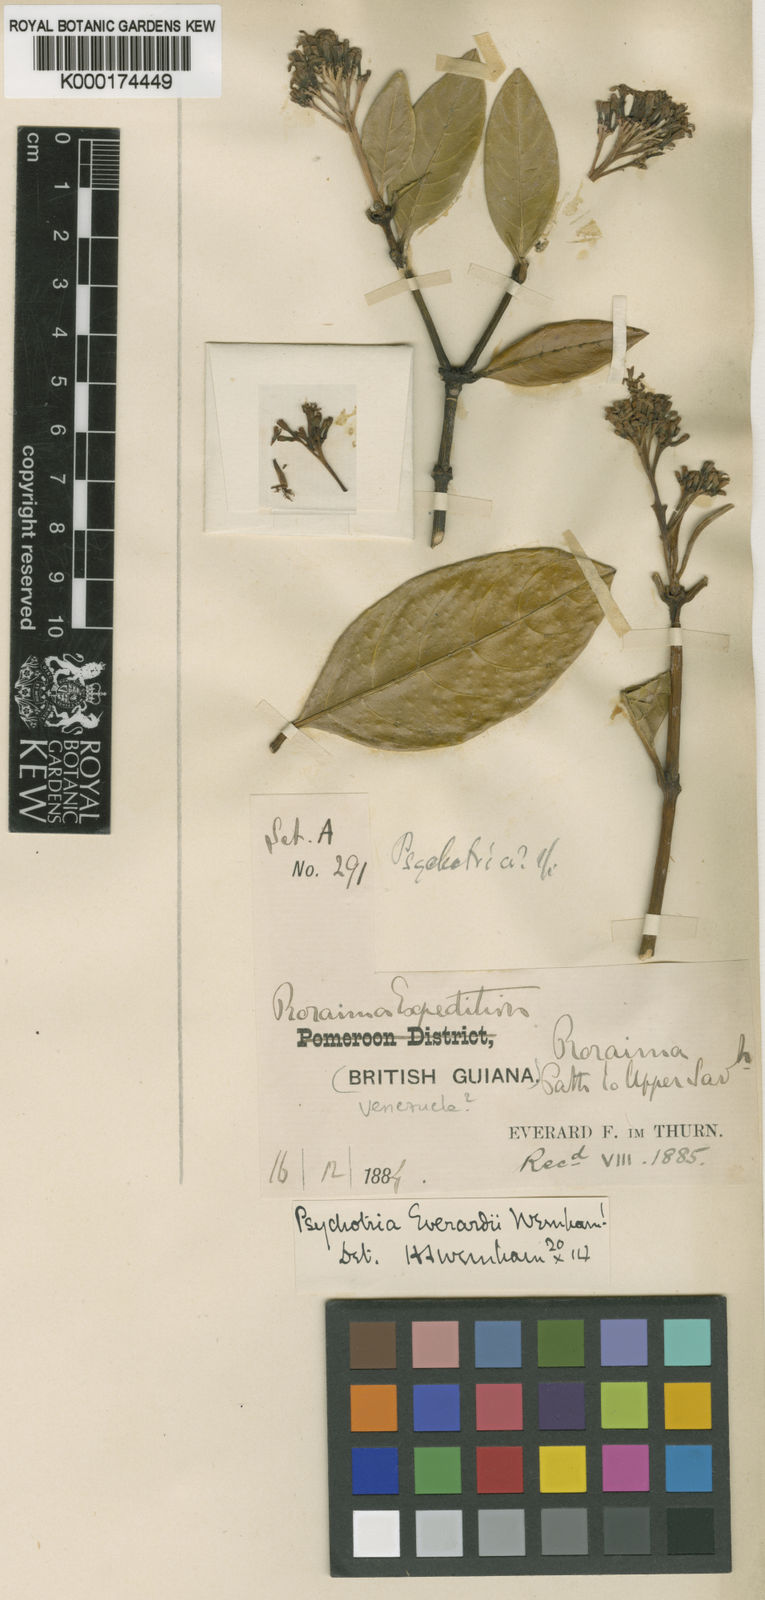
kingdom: Plantae
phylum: Tracheophyta
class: Magnoliopsida
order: Gentianales
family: Rubiaceae
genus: Palicourea
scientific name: Palicourea everardii
